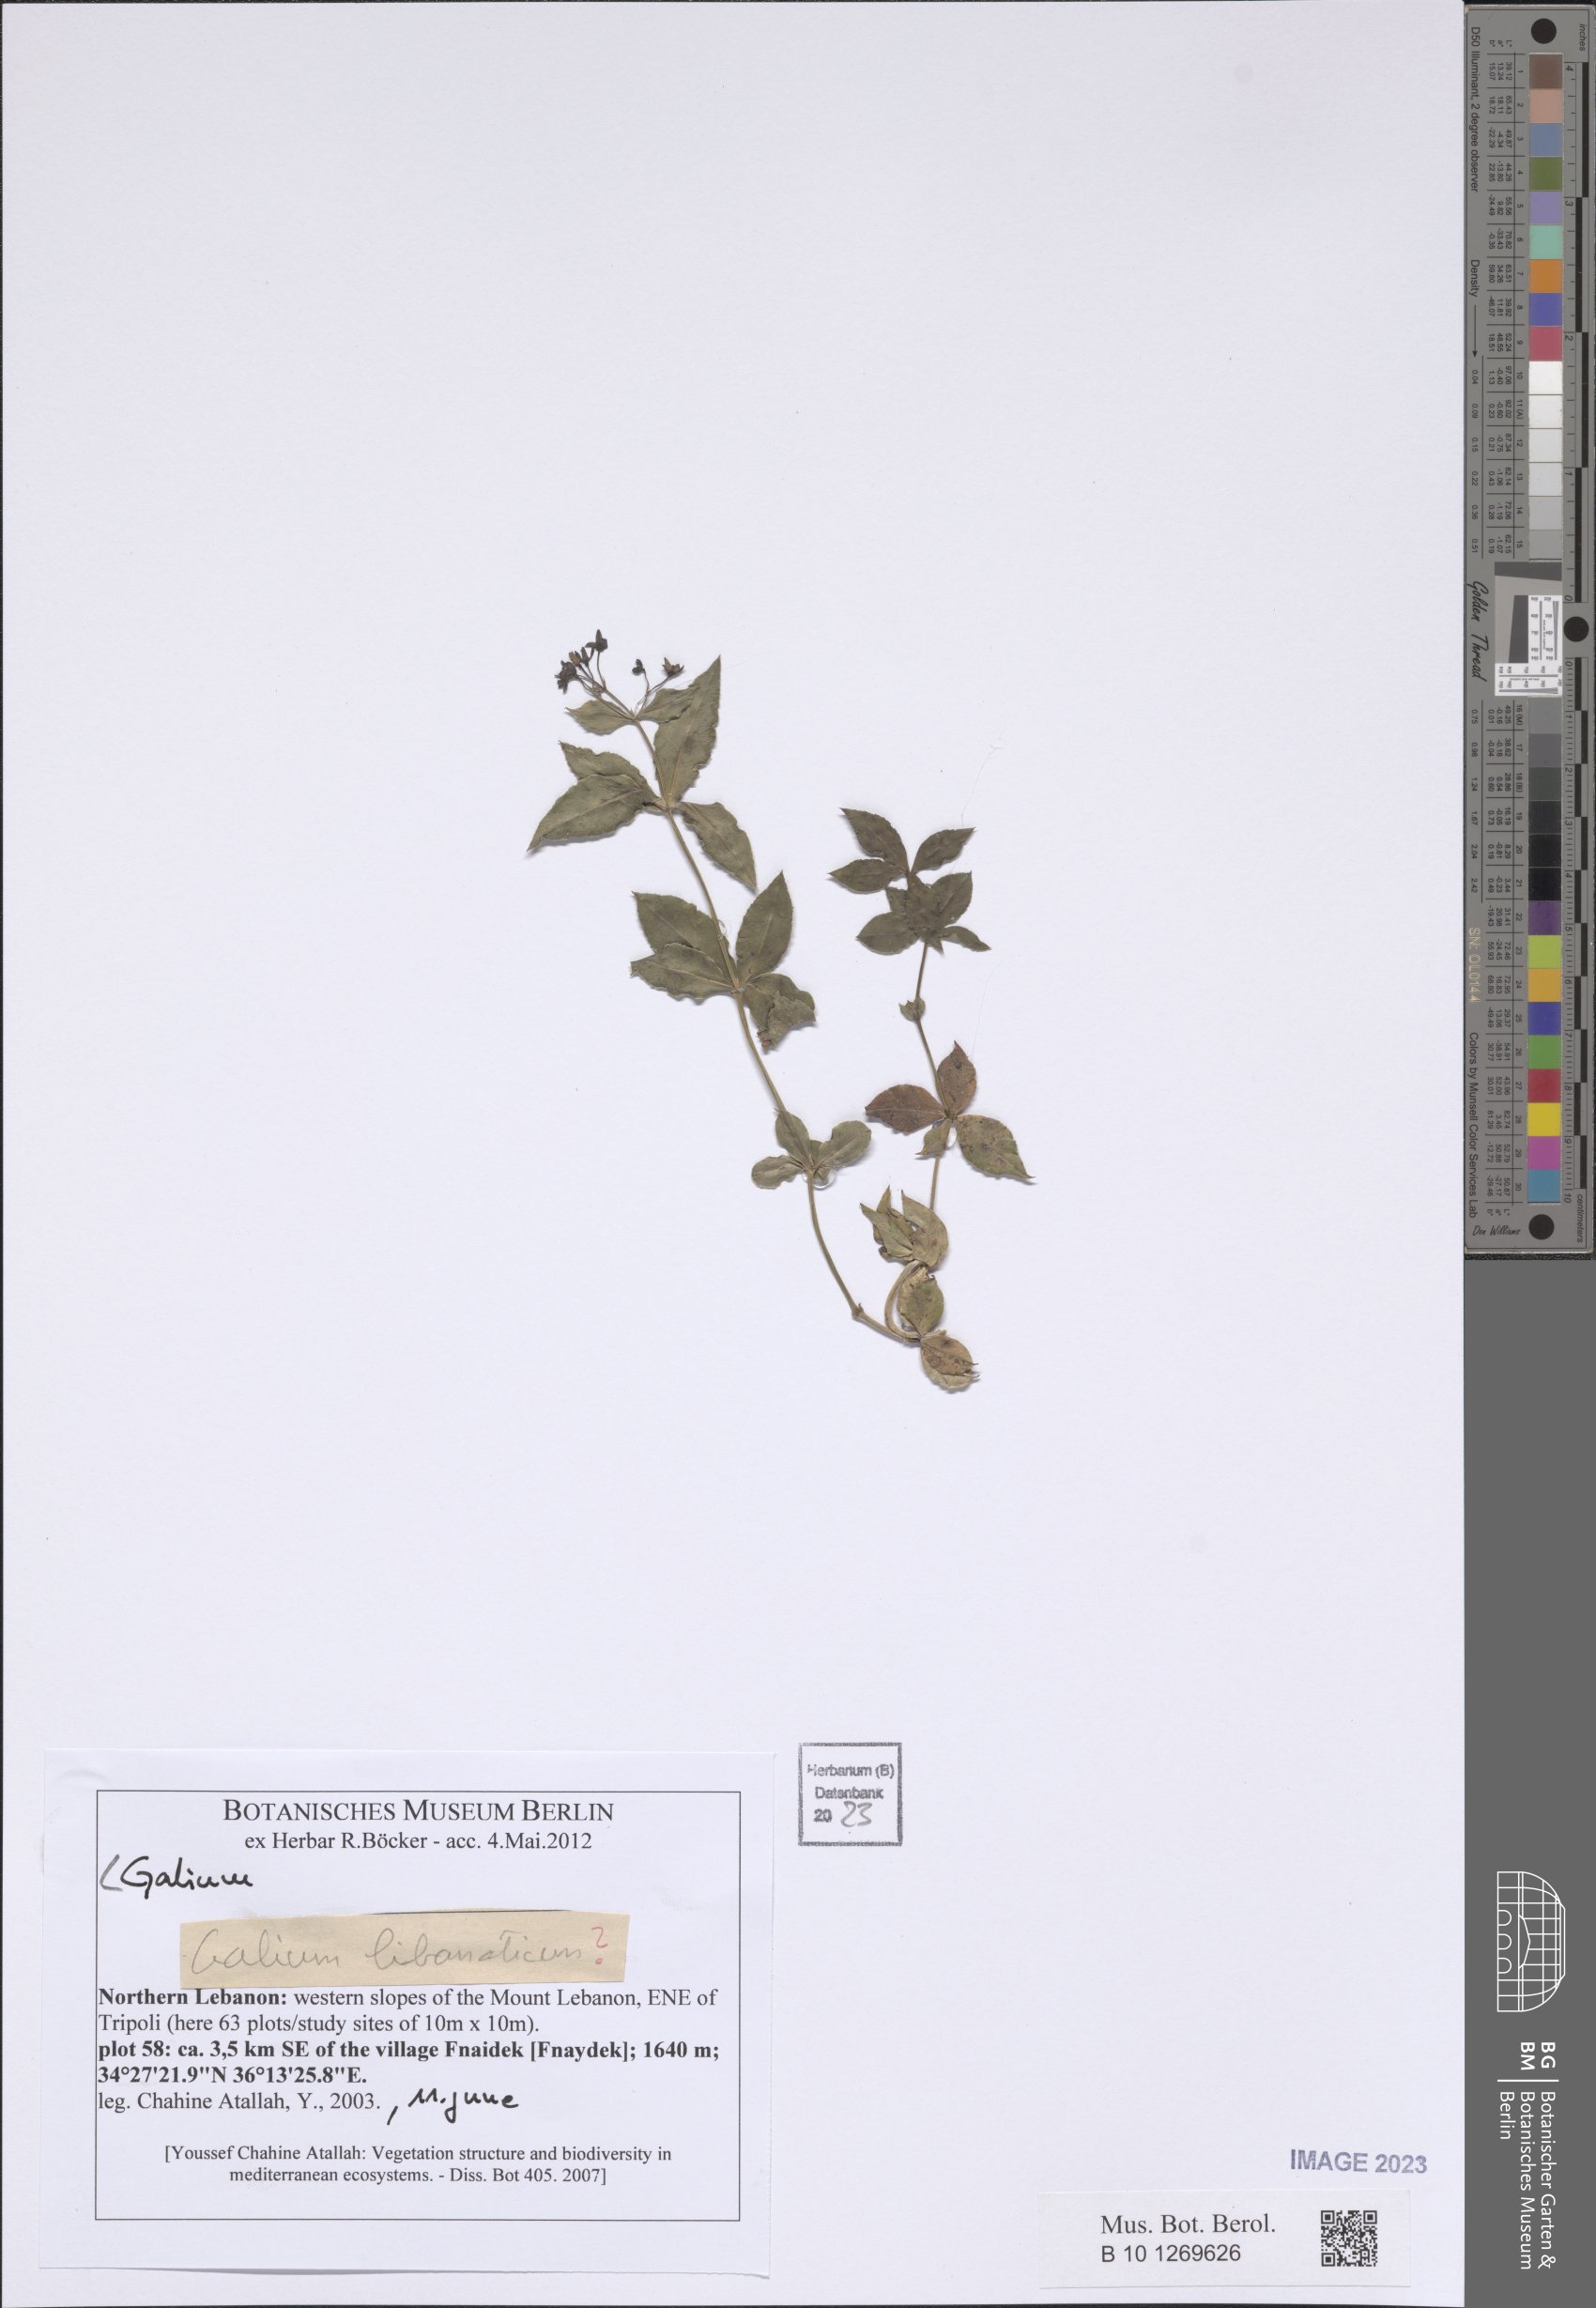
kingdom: Plantae
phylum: Tracheophyta
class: Magnoliopsida
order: Gentianales
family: Rubiaceae
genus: Galium
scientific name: Galium
